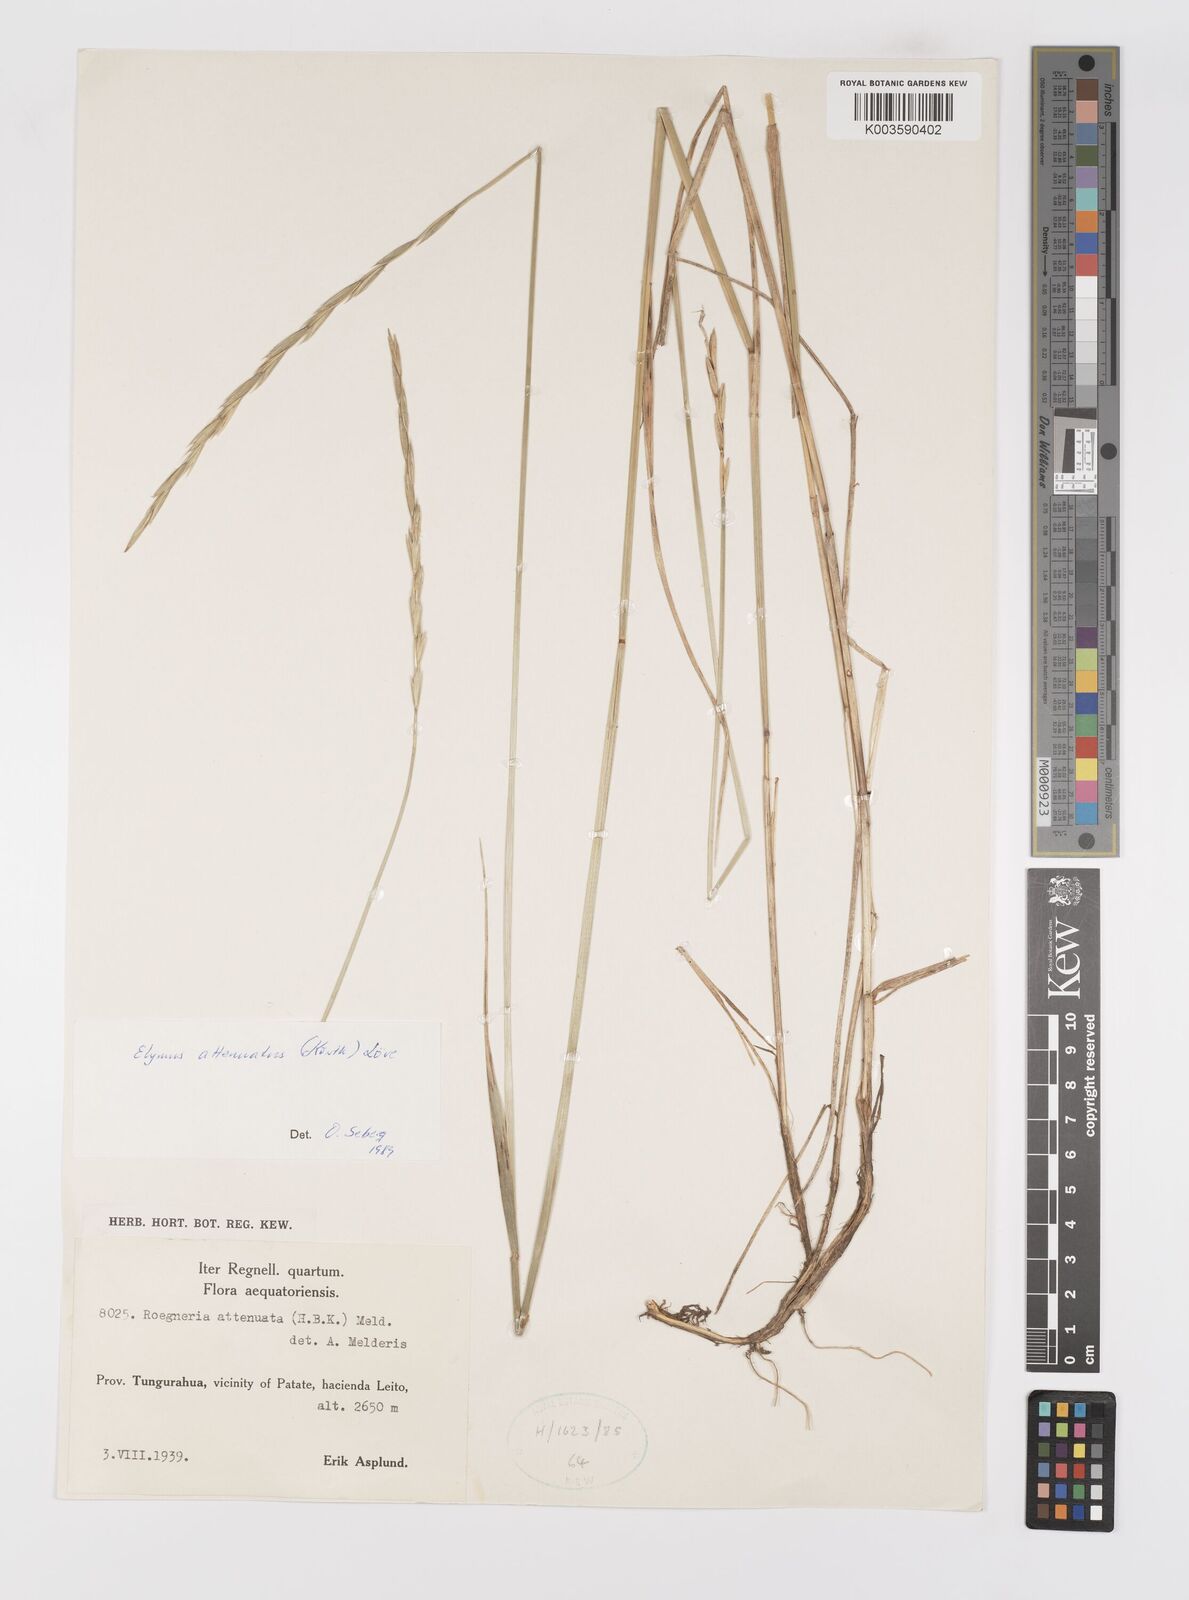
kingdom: Plantae
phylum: Tracheophyta
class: Liliopsida
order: Poales
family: Poaceae
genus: Elymus
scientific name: Elymus cordilleranus
